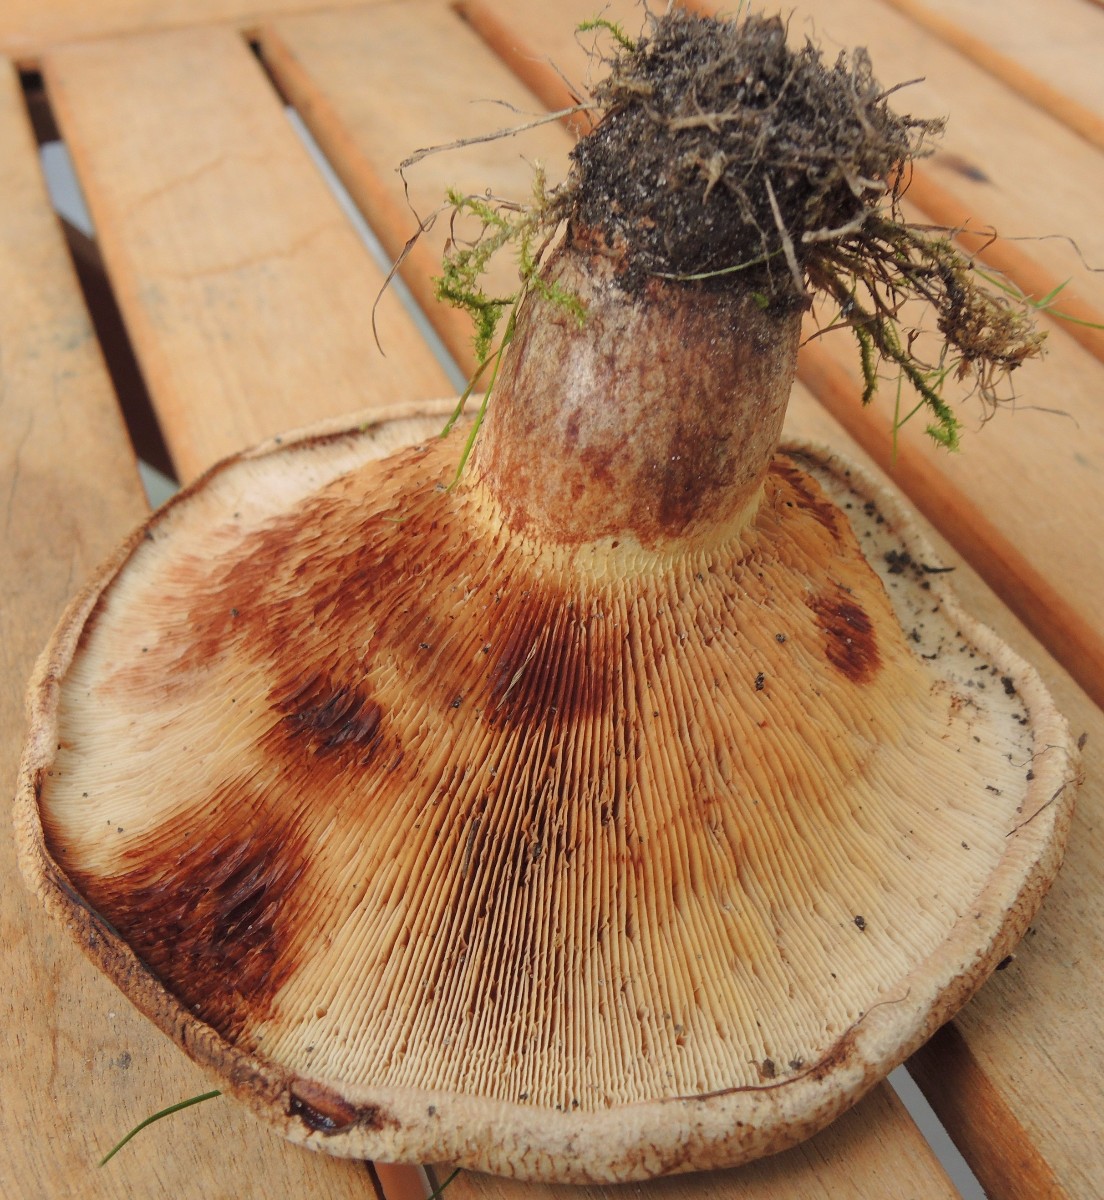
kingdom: Fungi
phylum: Basidiomycota
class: Agaricomycetes
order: Boletales
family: Paxillaceae
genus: Paxillus
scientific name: Paxillus obscurisporus
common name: mahognisporet netbladhat
